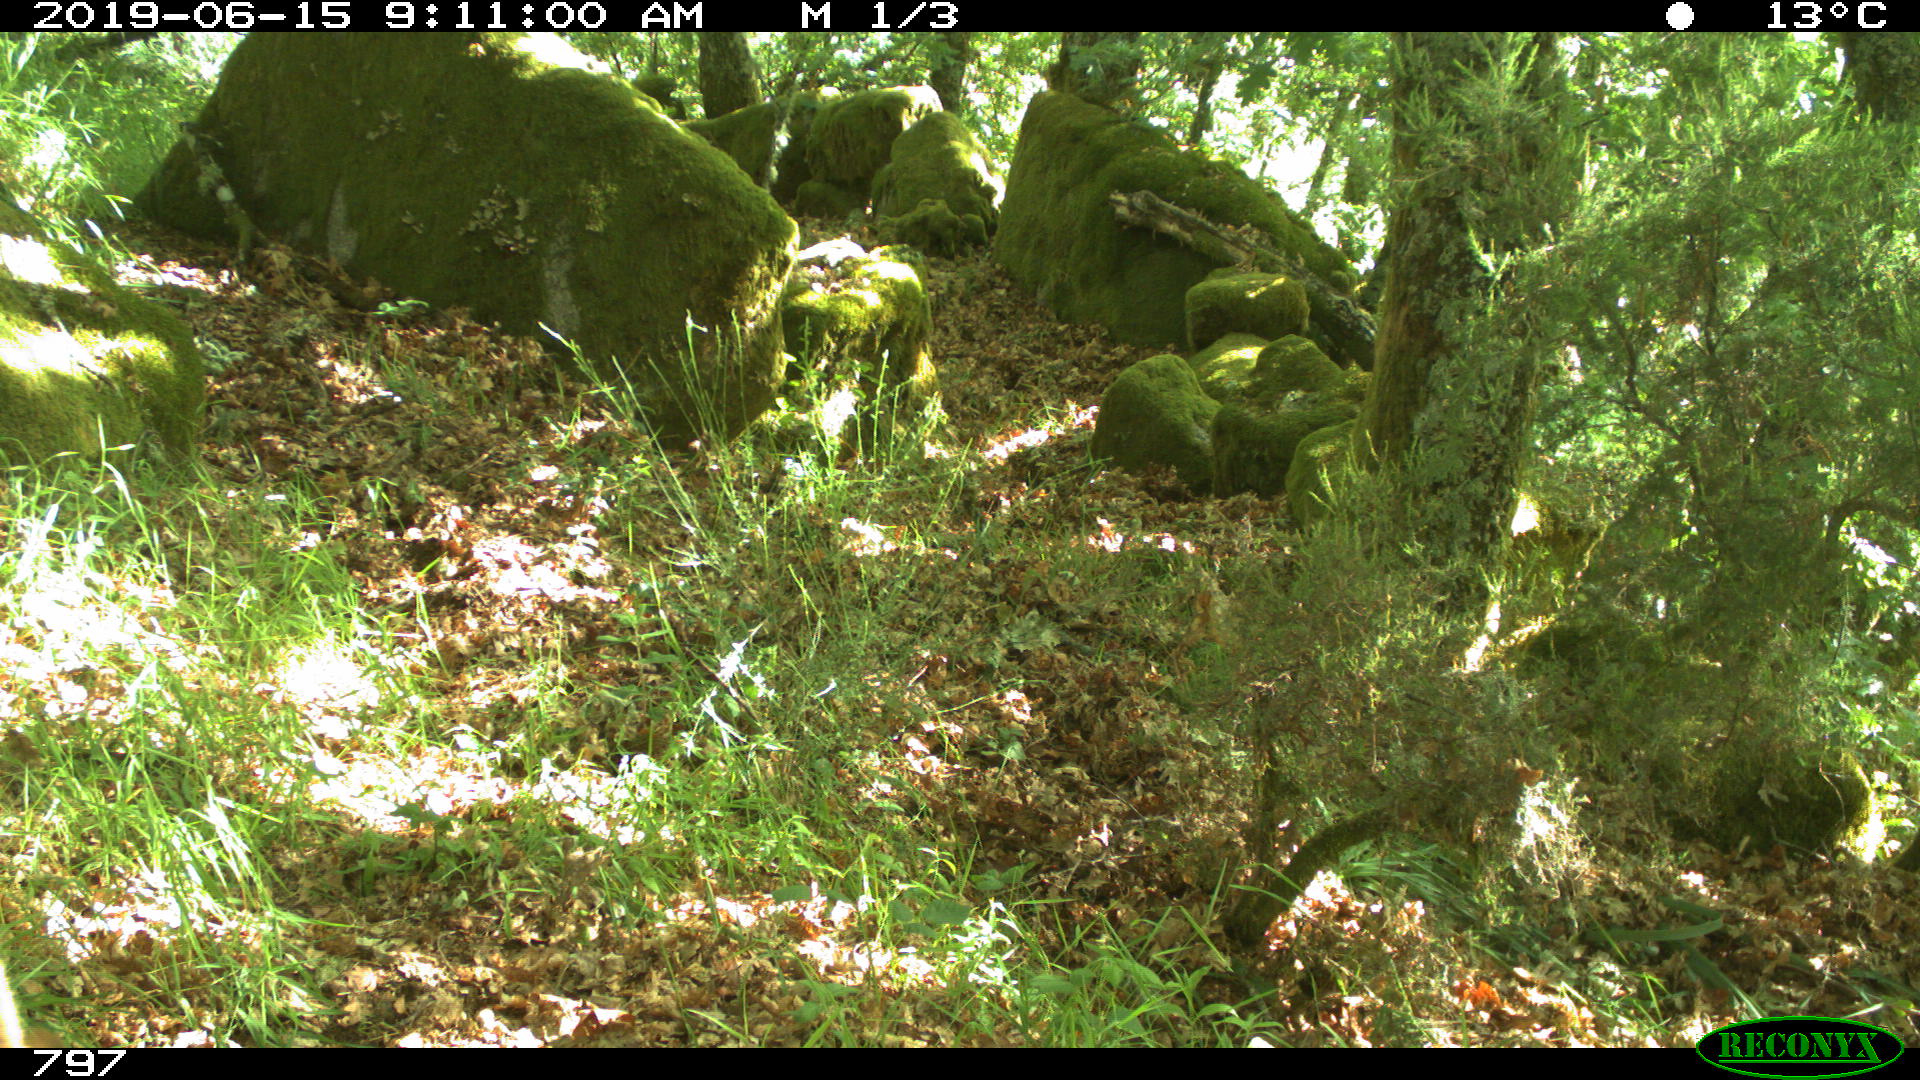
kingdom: Animalia
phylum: Chordata
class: Mammalia
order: Artiodactyla
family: Cervidae
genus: Capreolus
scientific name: Capreolus capreolus
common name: Western roe deer
